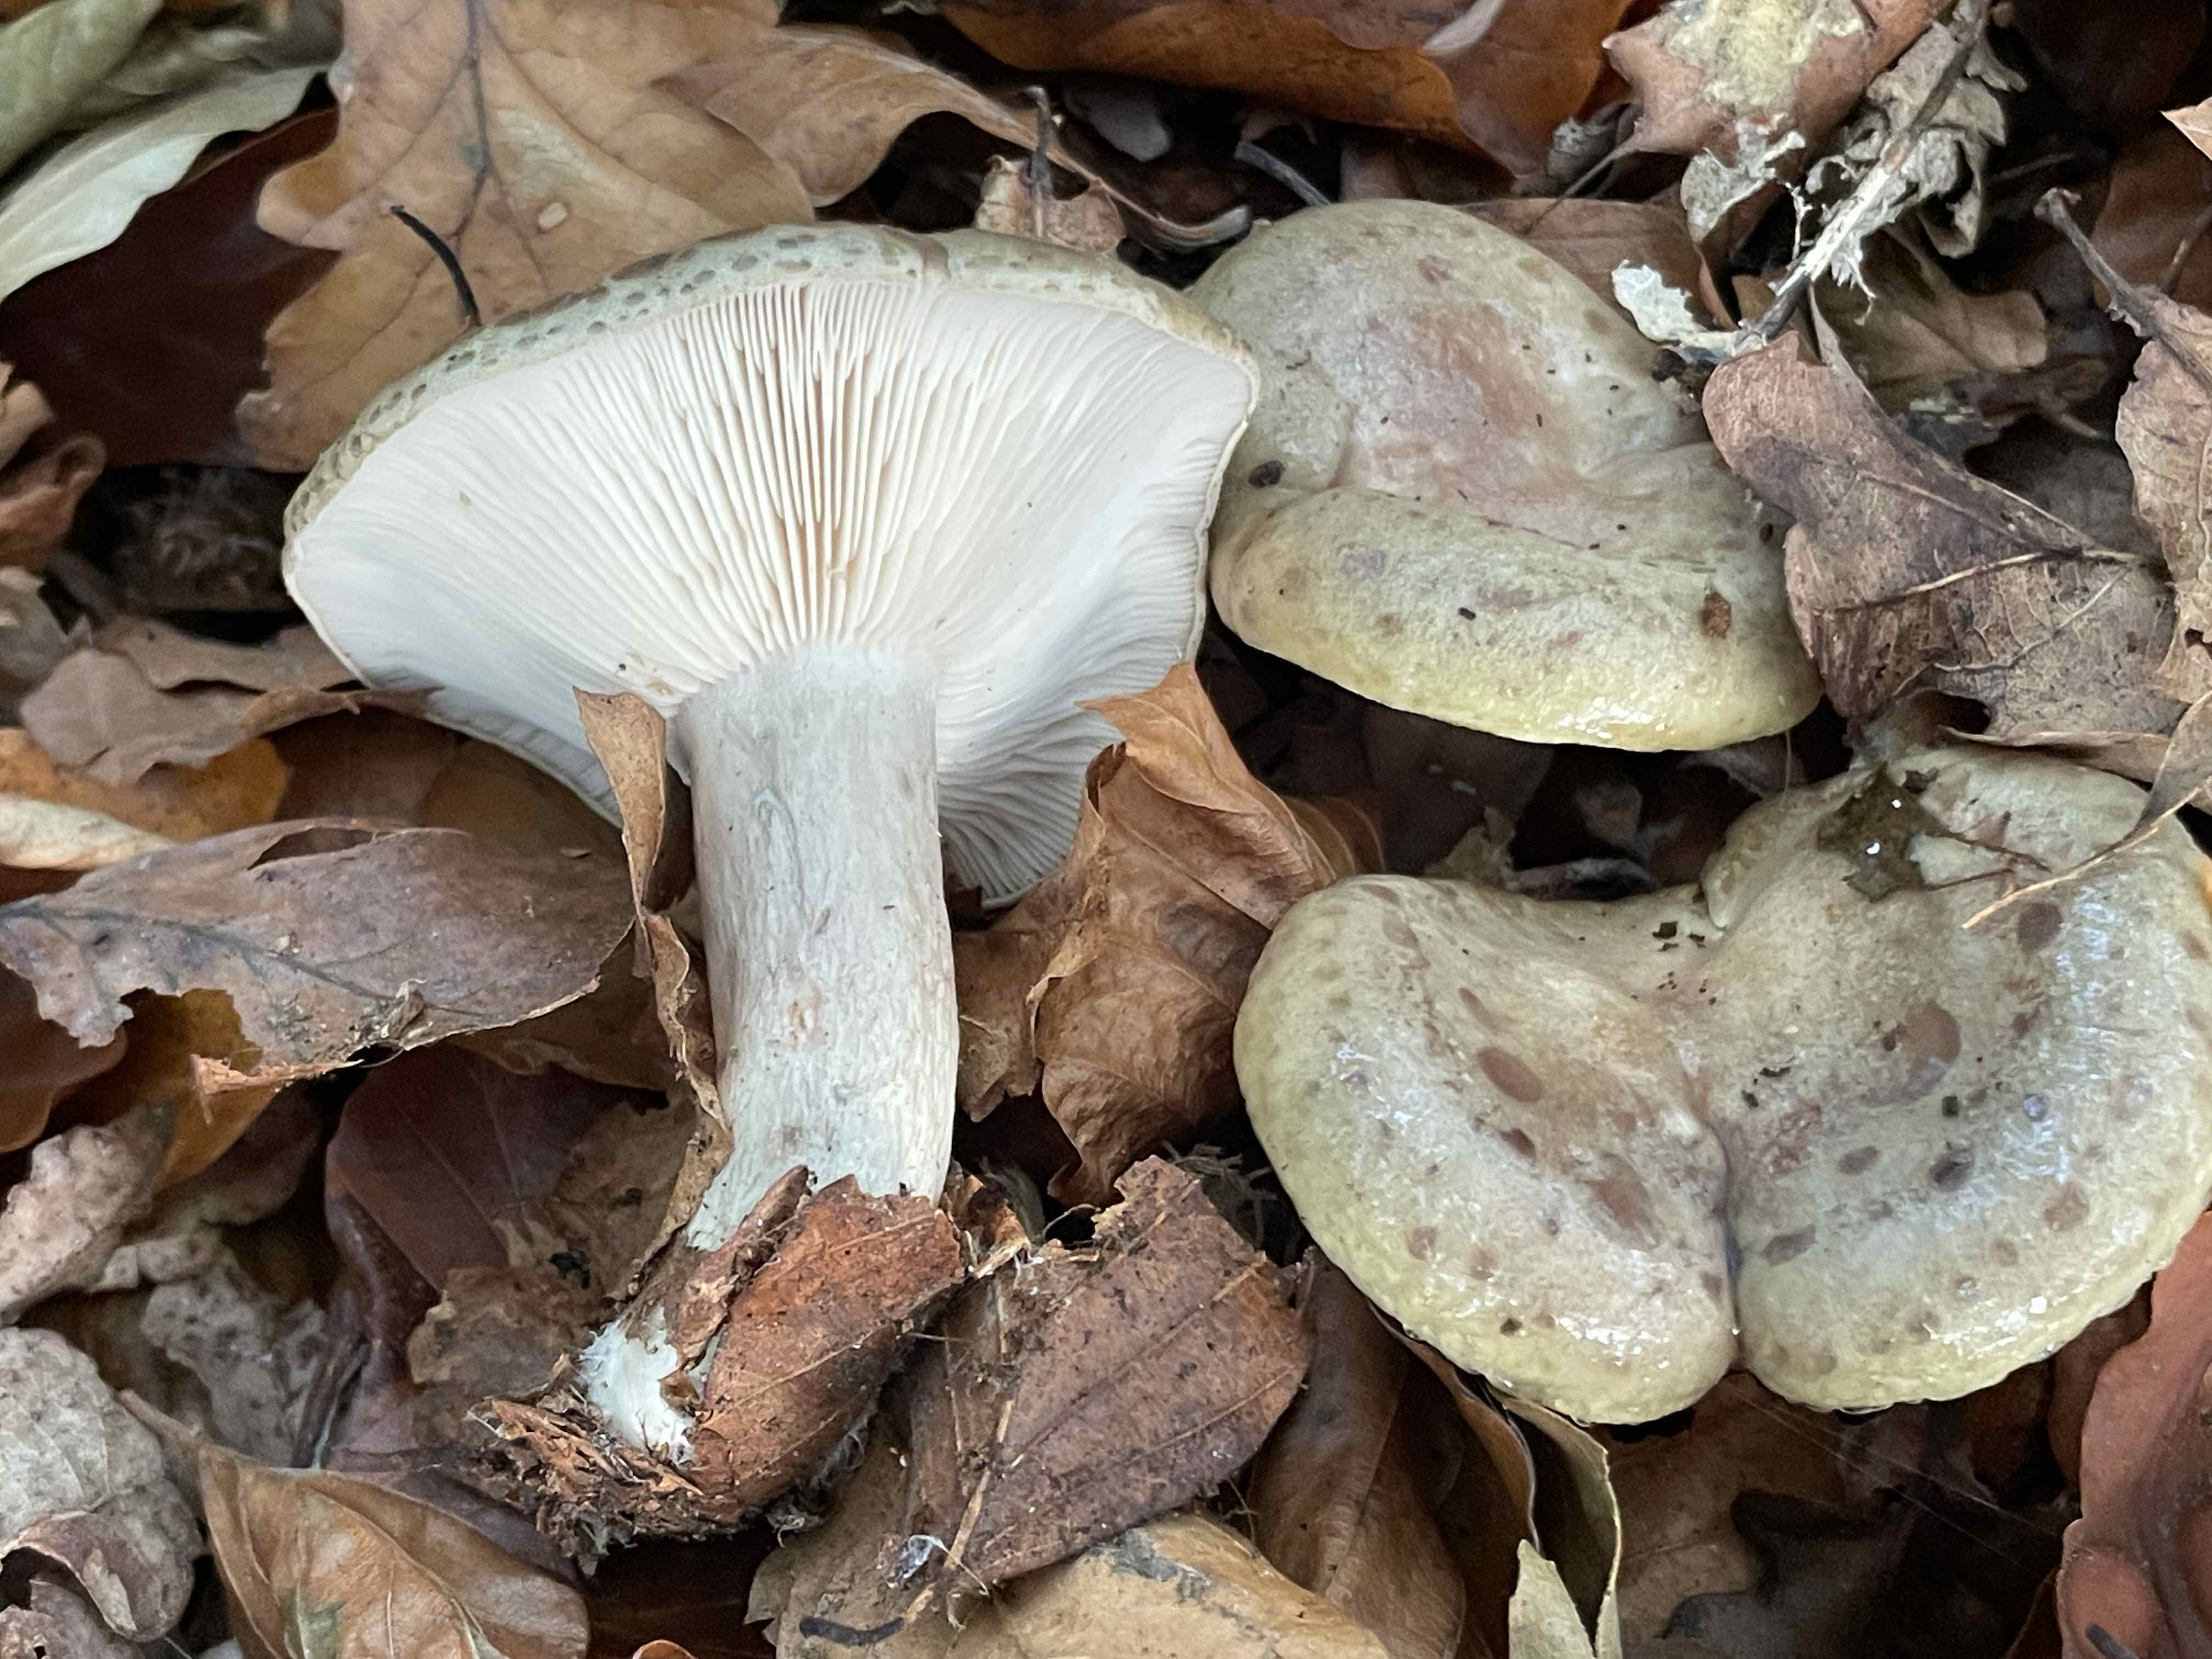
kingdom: Fungi
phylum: Basidiomycota
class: Agaricomycetes
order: Russulales
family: Russulaceae
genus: Lactarius
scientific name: Lactarius blennius
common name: dråbeplettet mælkehat
